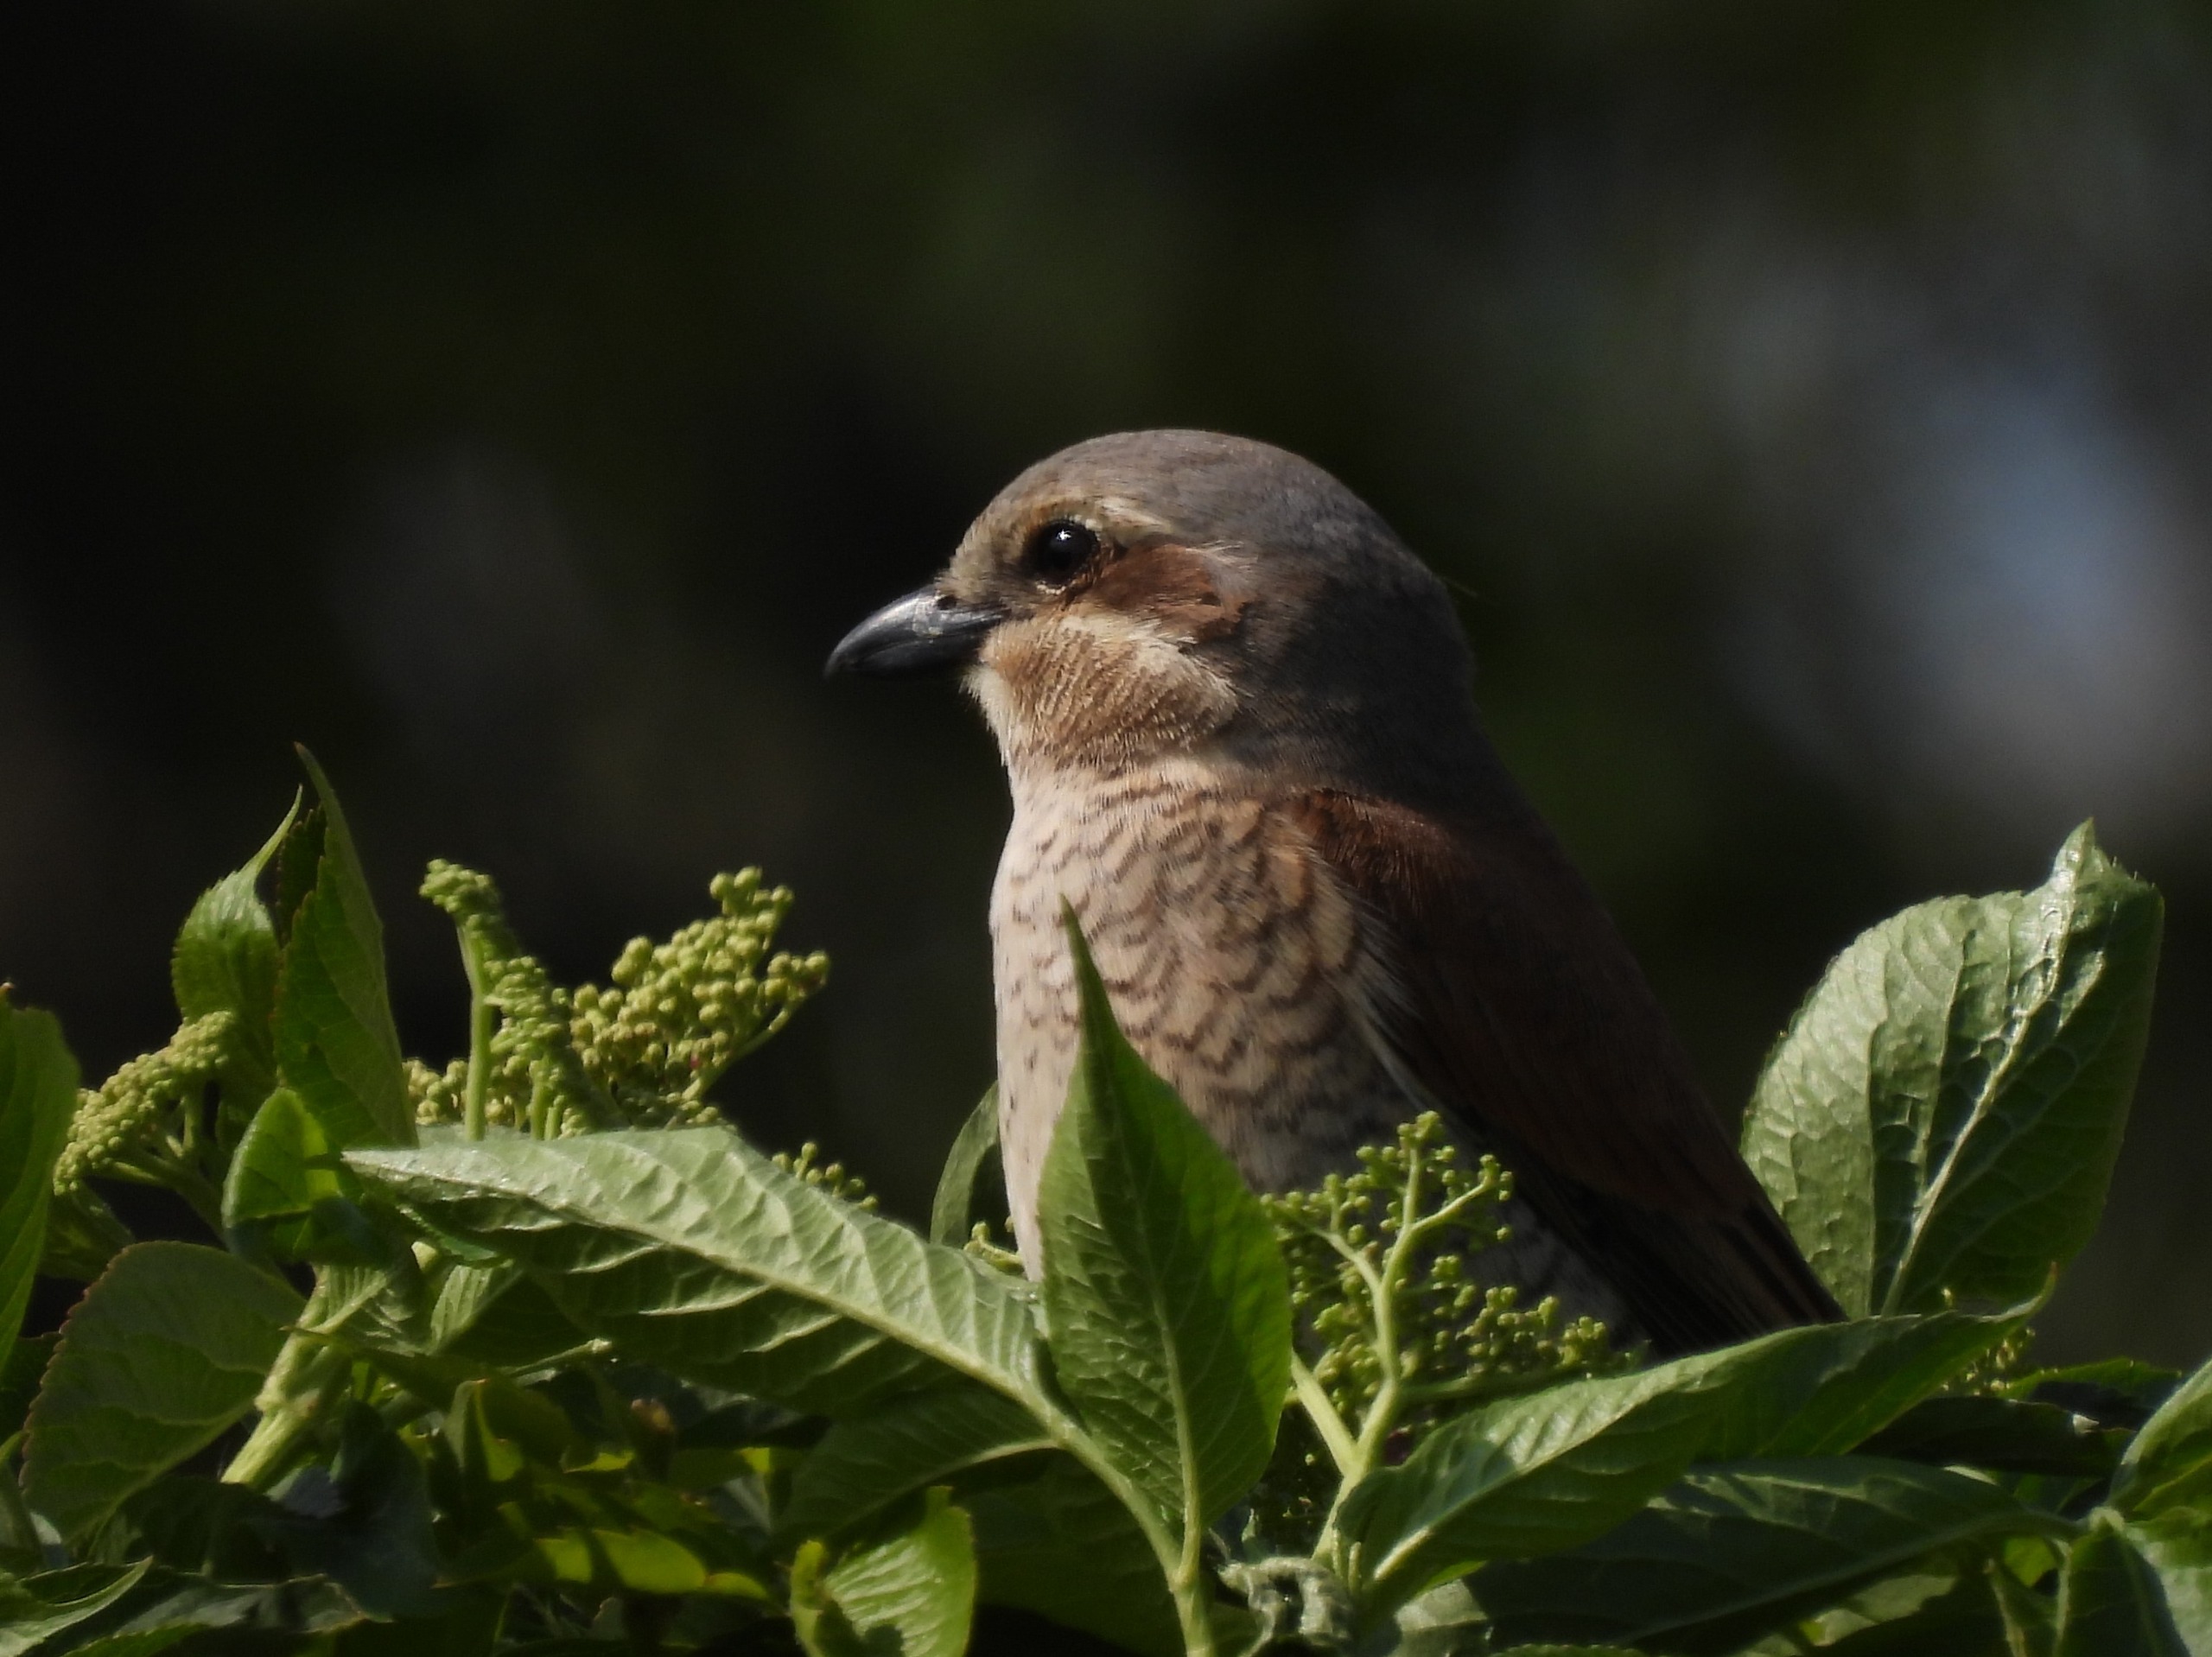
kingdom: Animalia
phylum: Chordata
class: Aves
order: Passeriformes
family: Laniidae
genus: Lanius
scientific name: Lanius collurio
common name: Rødrygget tornskade
